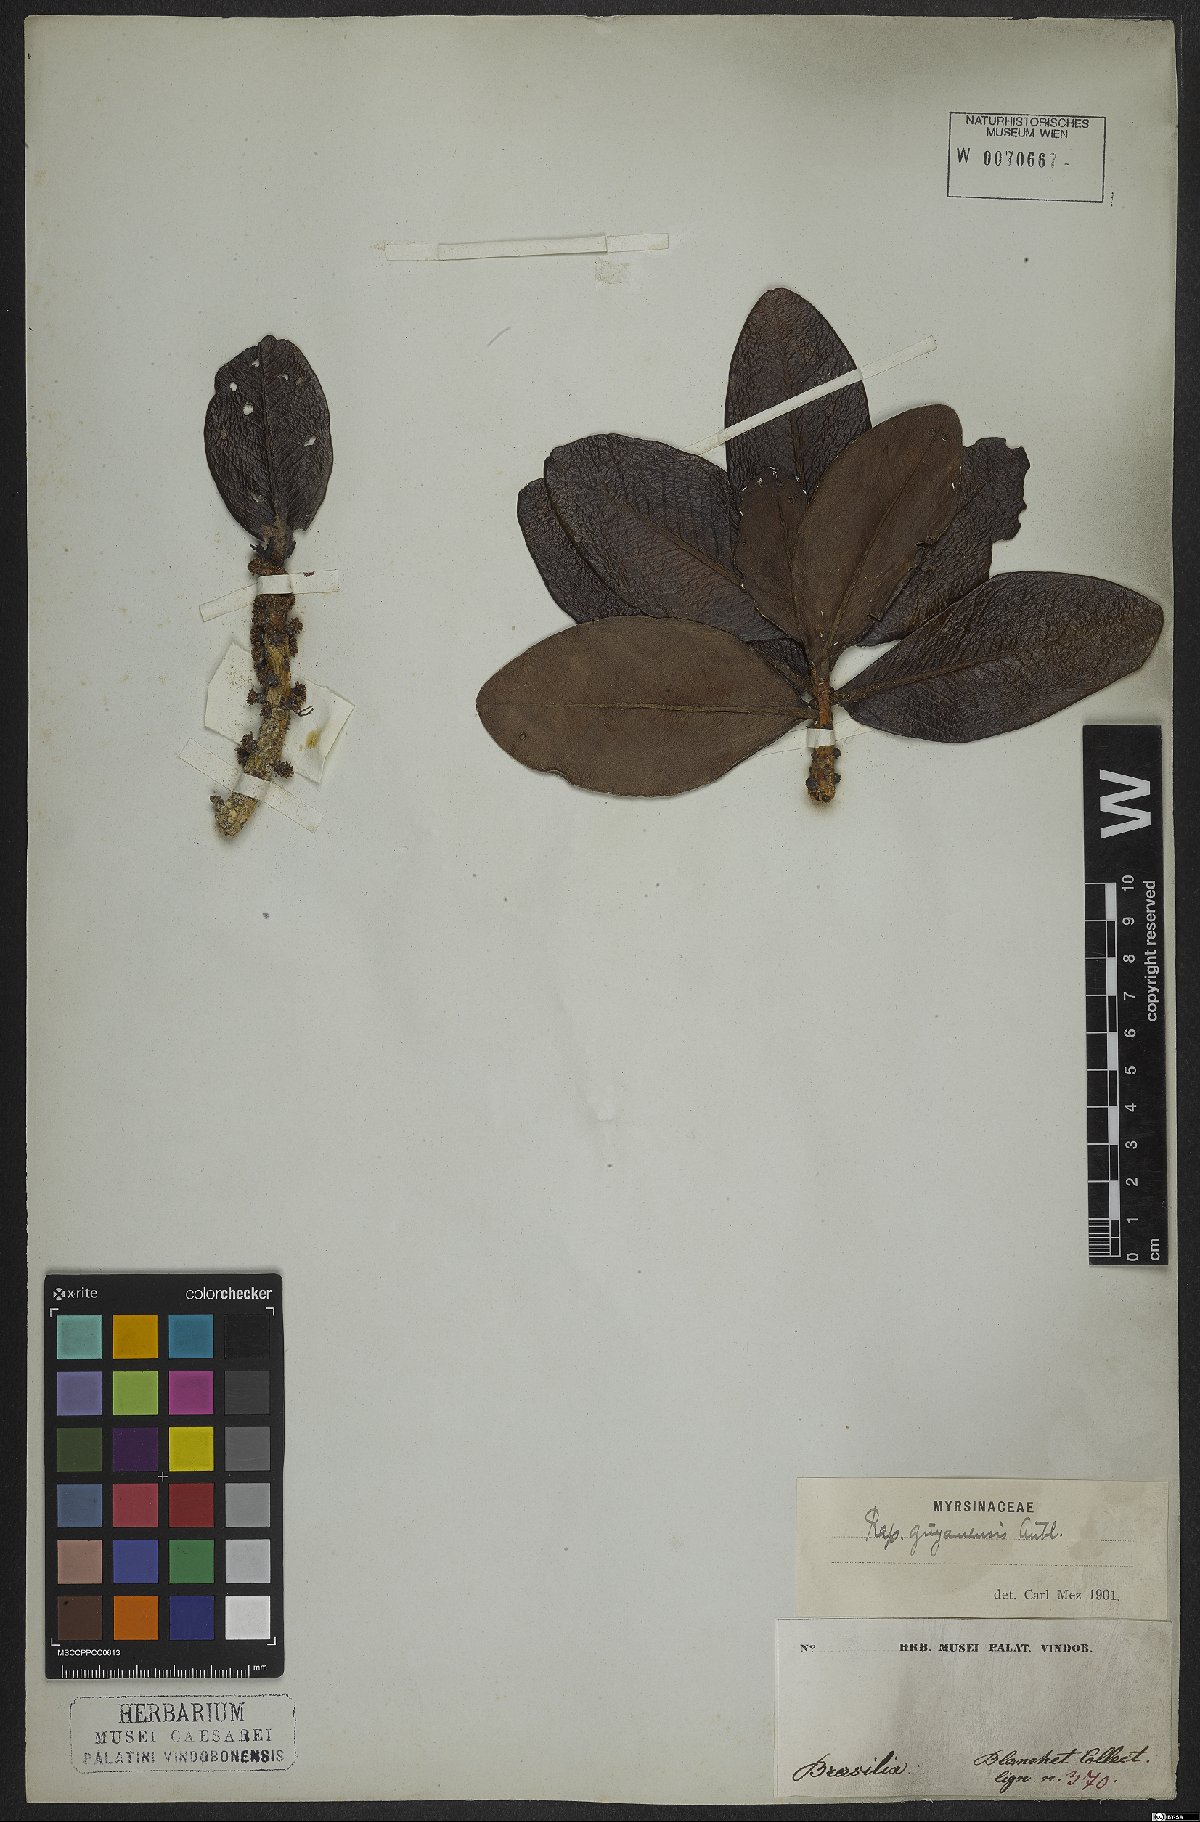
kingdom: Plantae
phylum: Tracheophyta
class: Magnoliopsida
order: Ericales
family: Primulaceae
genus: Myrsine
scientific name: Myrsine guianensis
